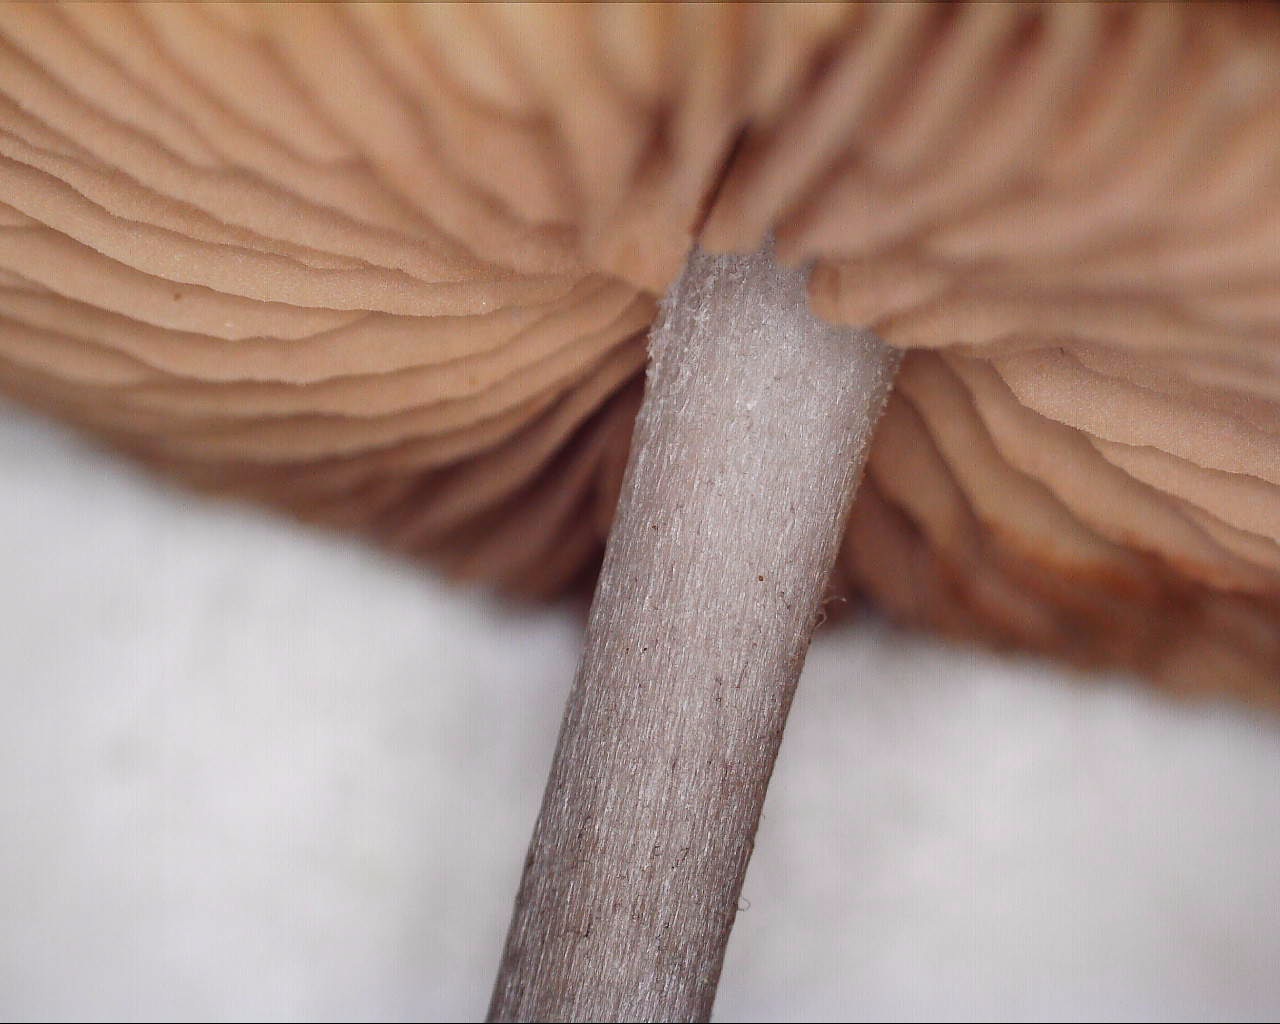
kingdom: Fungi
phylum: Basidiomycota
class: Agaricomycetes
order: Agaricales
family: Entolomataceae
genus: Entoloma
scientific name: Entoloma griseocyaneum
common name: gråblå rødblad
